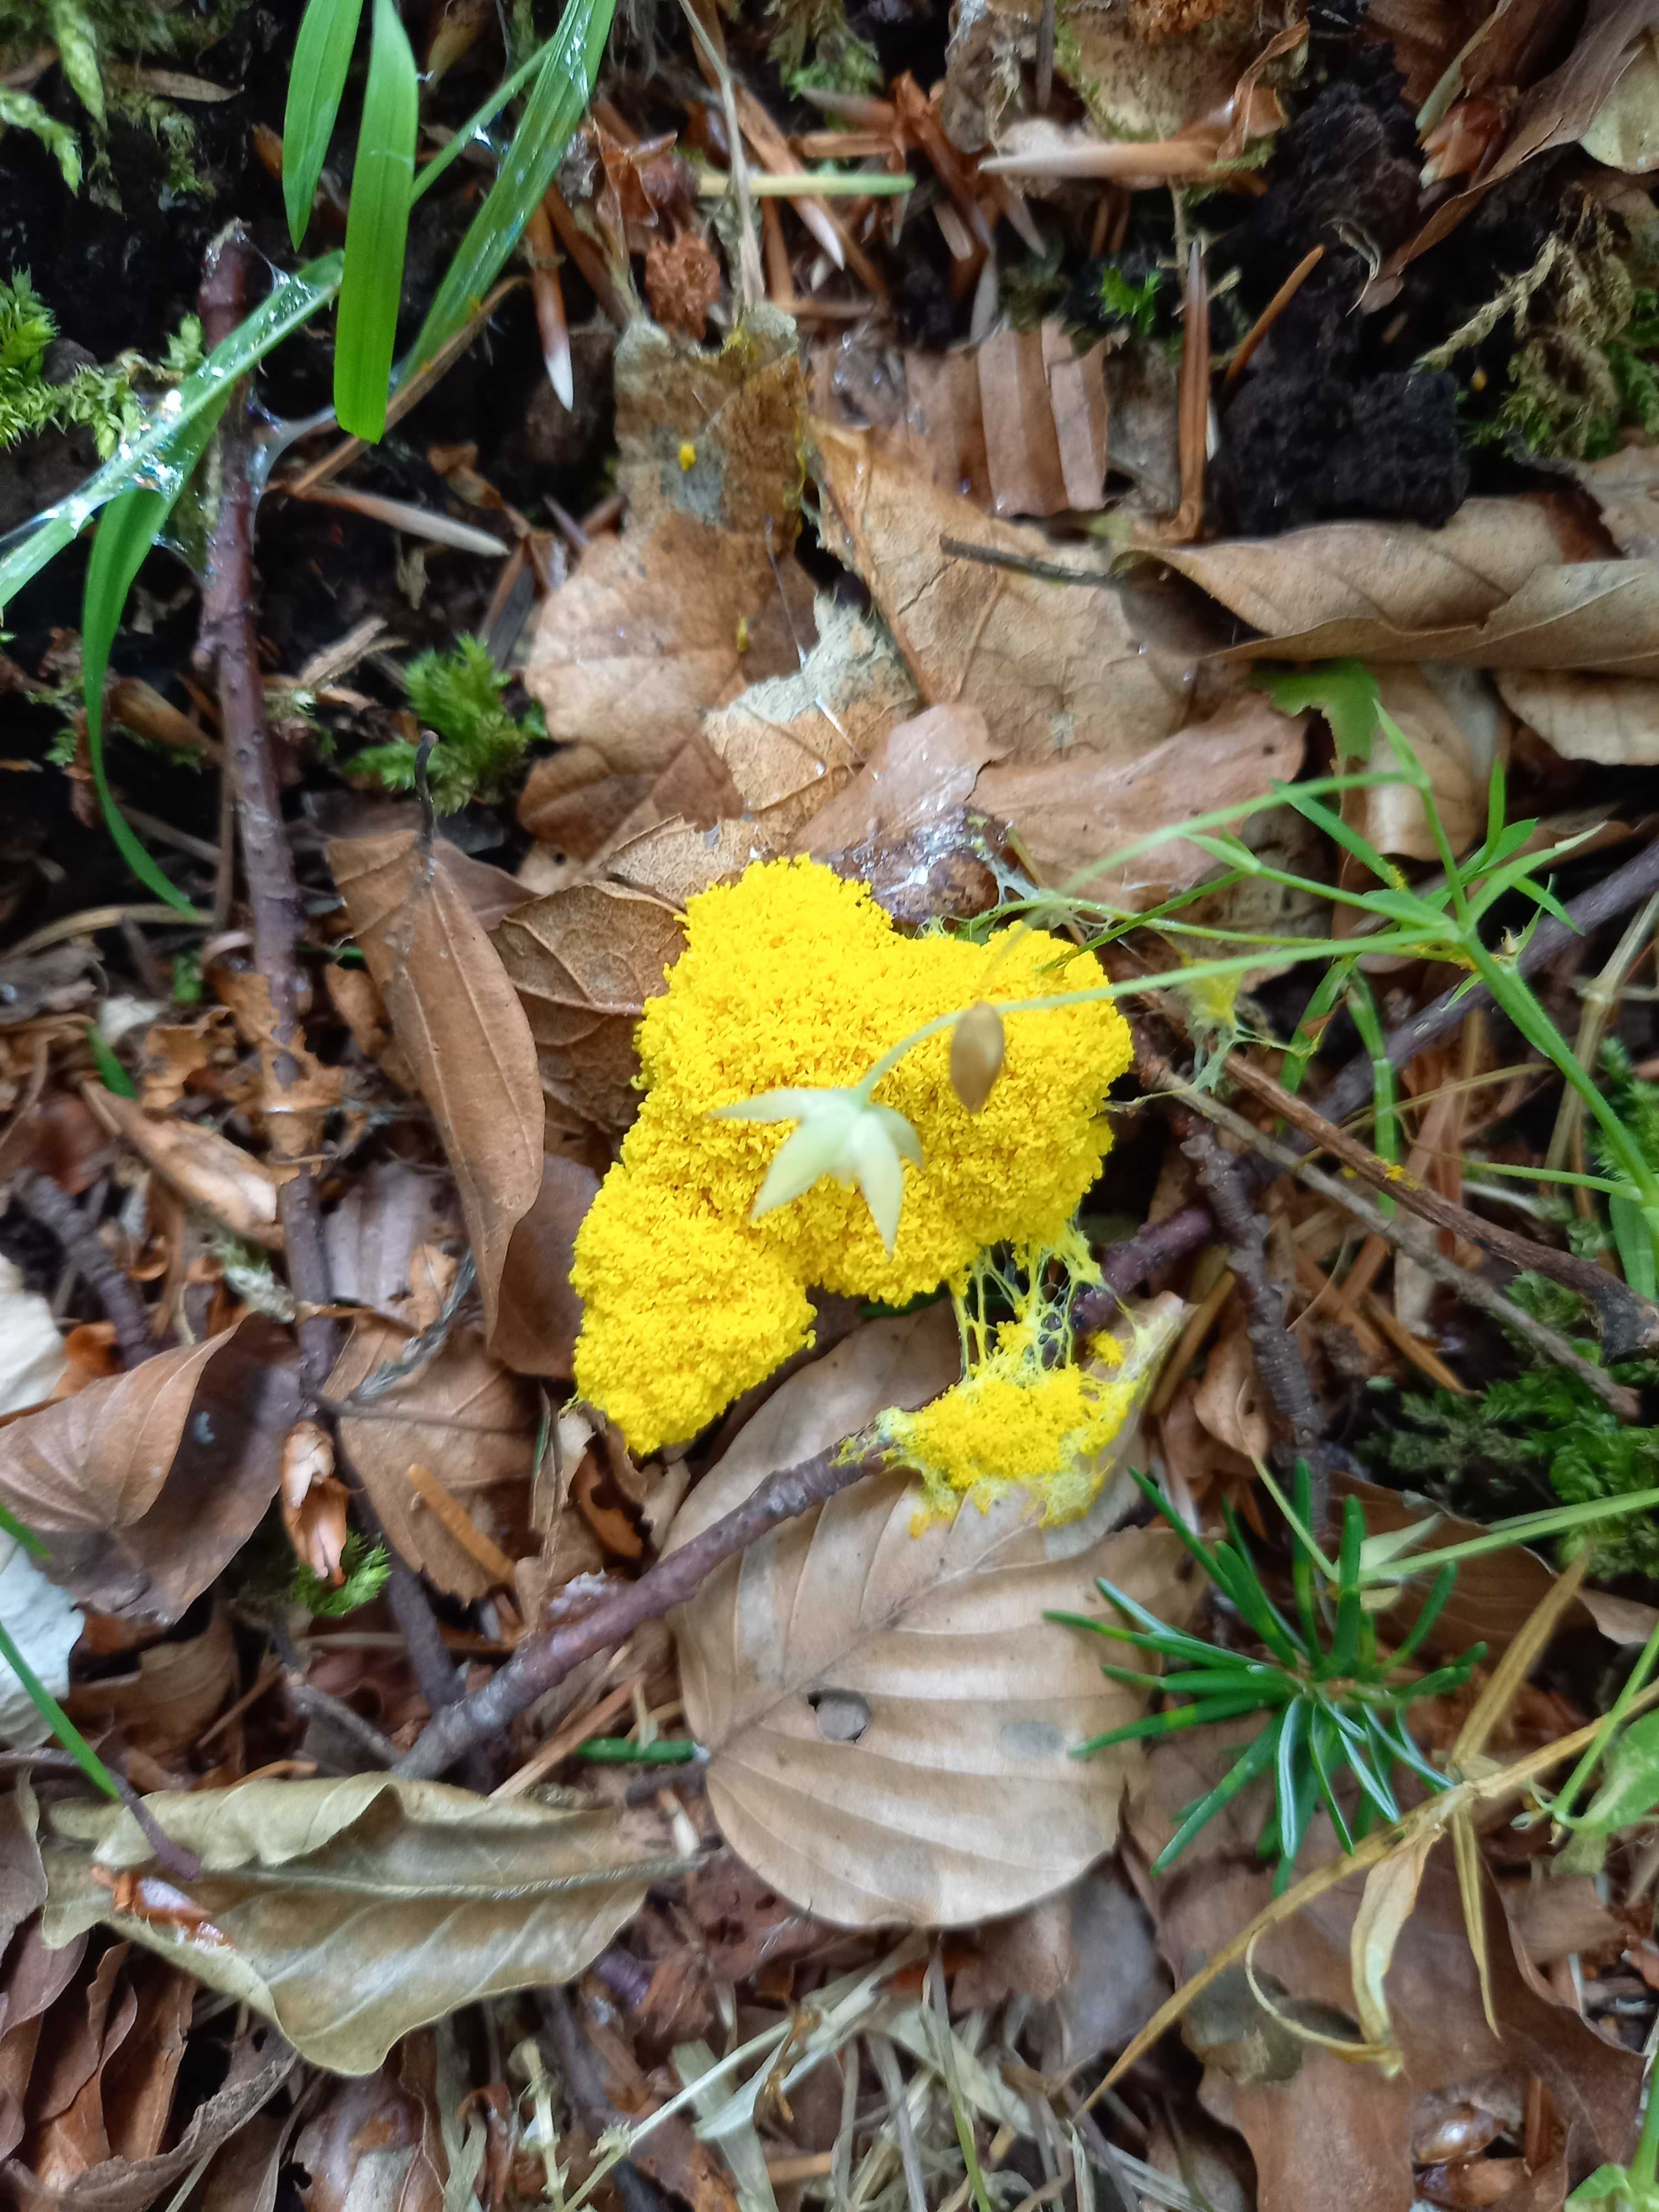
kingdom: Protozoa
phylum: Mycetozoa
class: Myxomycetes
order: Physarales
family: Physaraceae
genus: Fuligo
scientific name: Fuligo septica
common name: gul troldsmør
